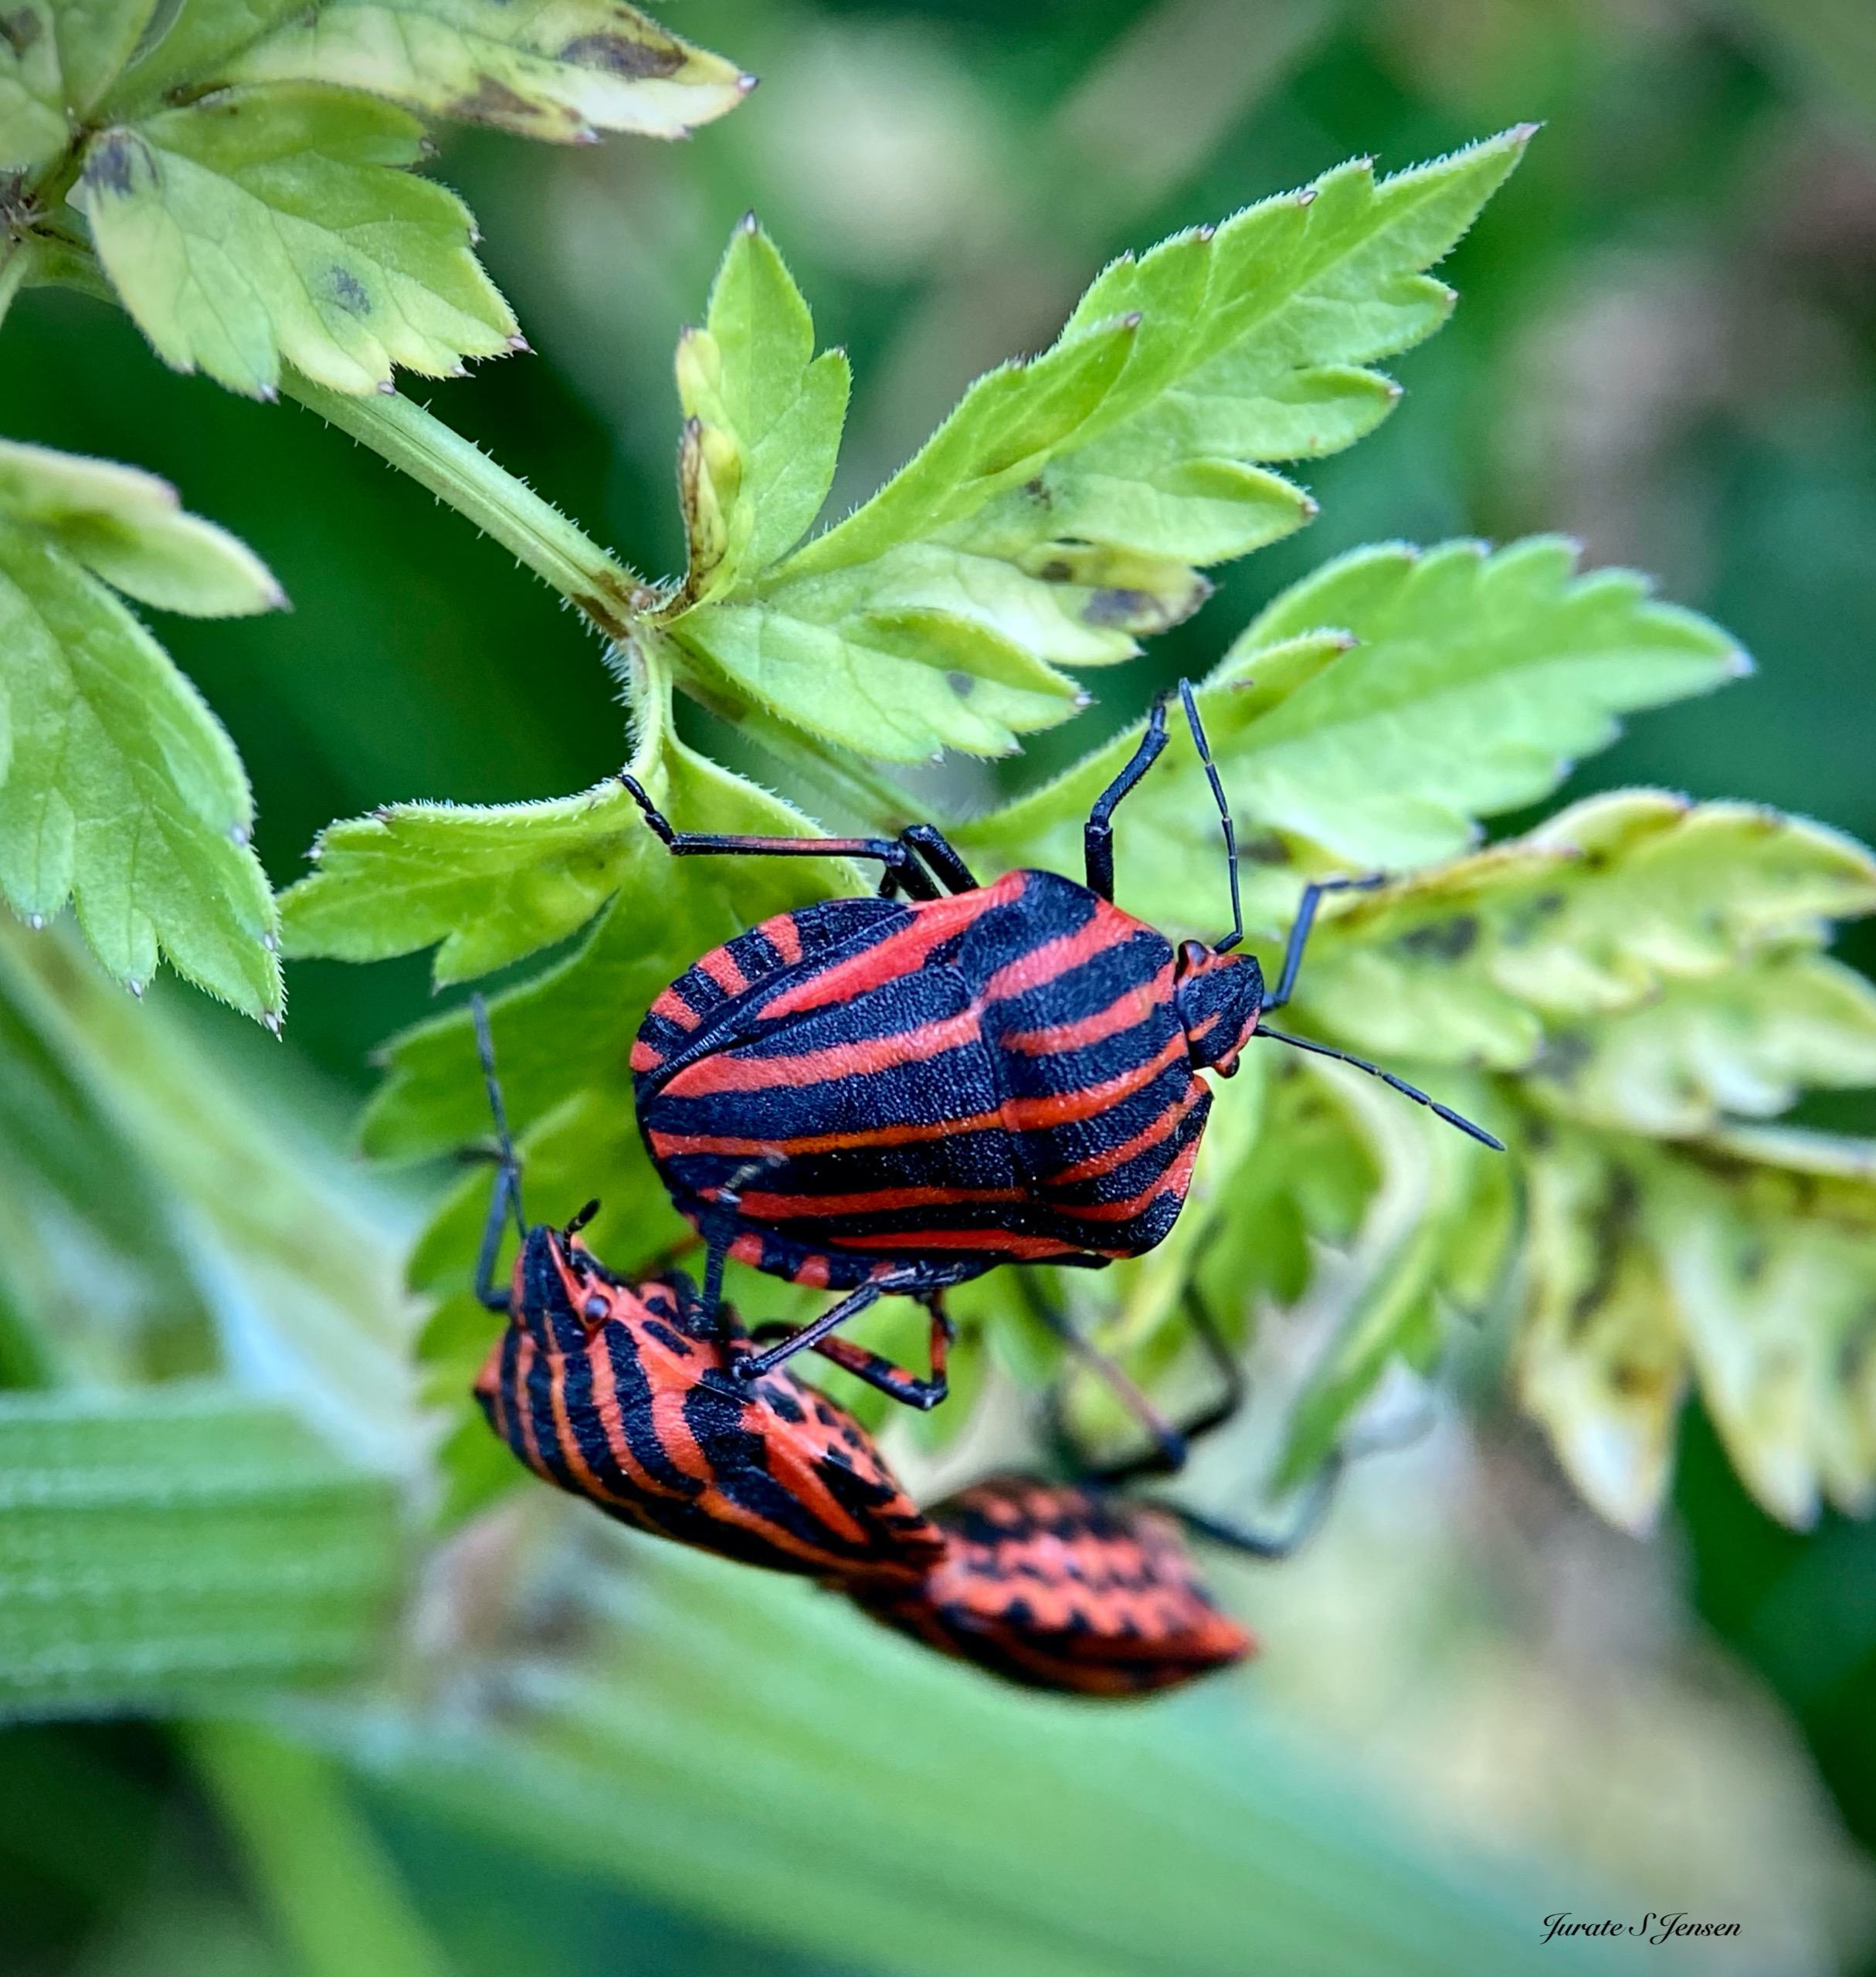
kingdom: Animalia
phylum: Arthropoda
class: Insecta
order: Hemiptera
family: Pentatomidae
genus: Graphosoma
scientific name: Graphosoma italicum
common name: Stribetæge
